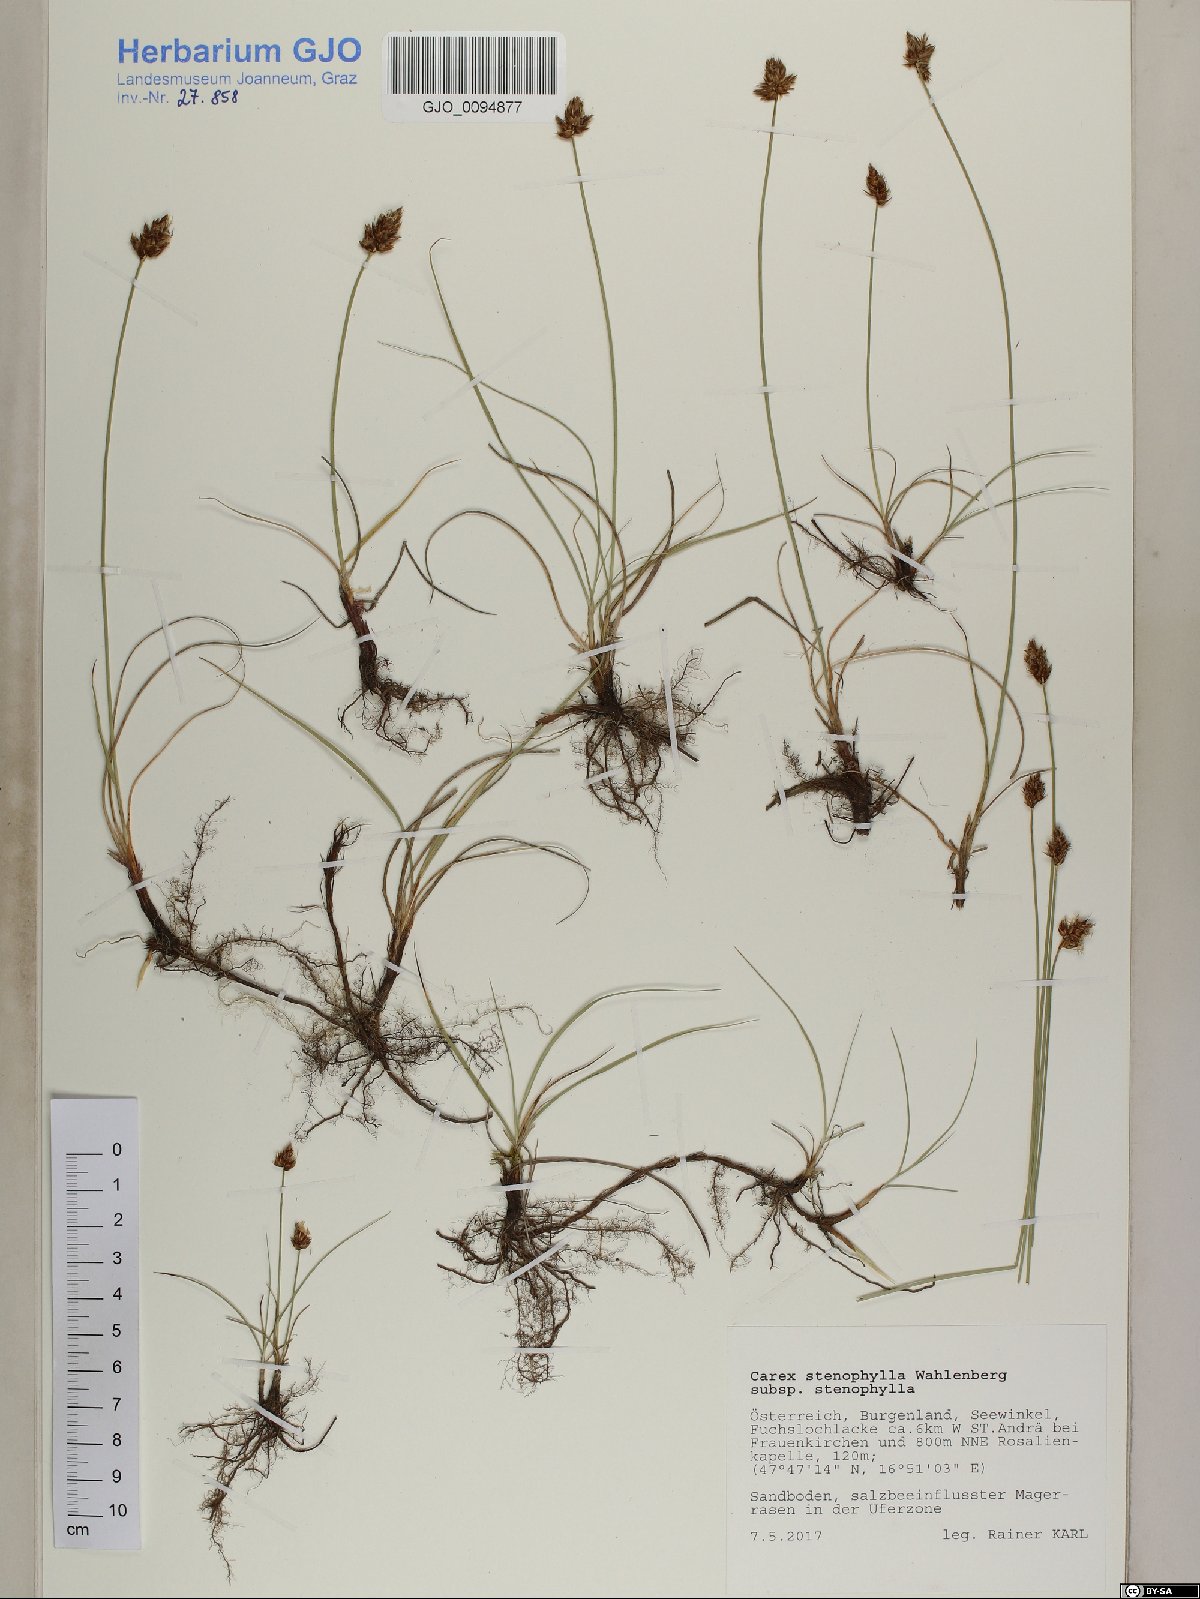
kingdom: Plantae
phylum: Tracheophyta
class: Liliopsida
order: Poales
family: Cyperaceae
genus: Carex
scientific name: Carex stenophylla
